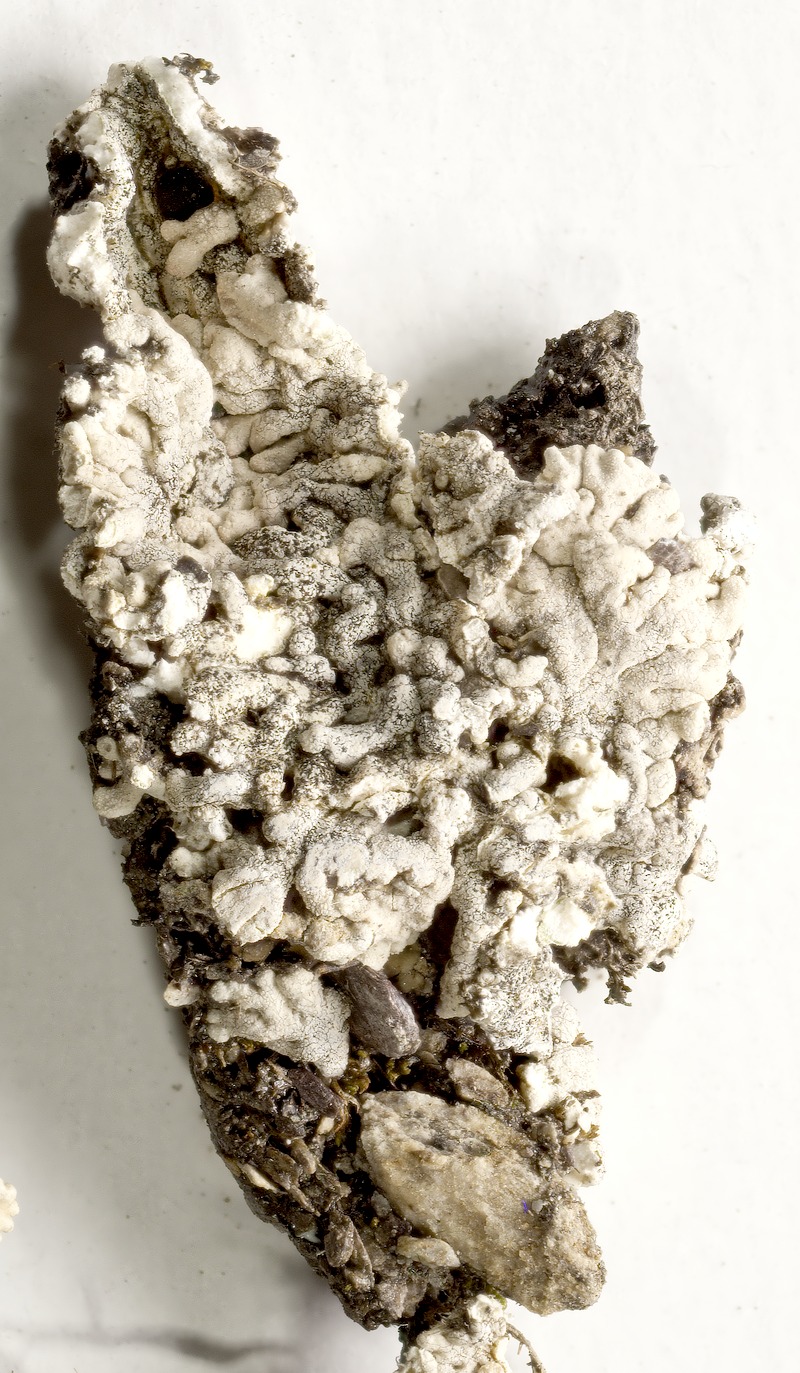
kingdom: Fungi
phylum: Ascomycota
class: Dothideomycetes
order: Lichenotheliales
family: Lichenotheliaceae
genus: Lichenostigma
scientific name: Lichenostigma semi-immersum
